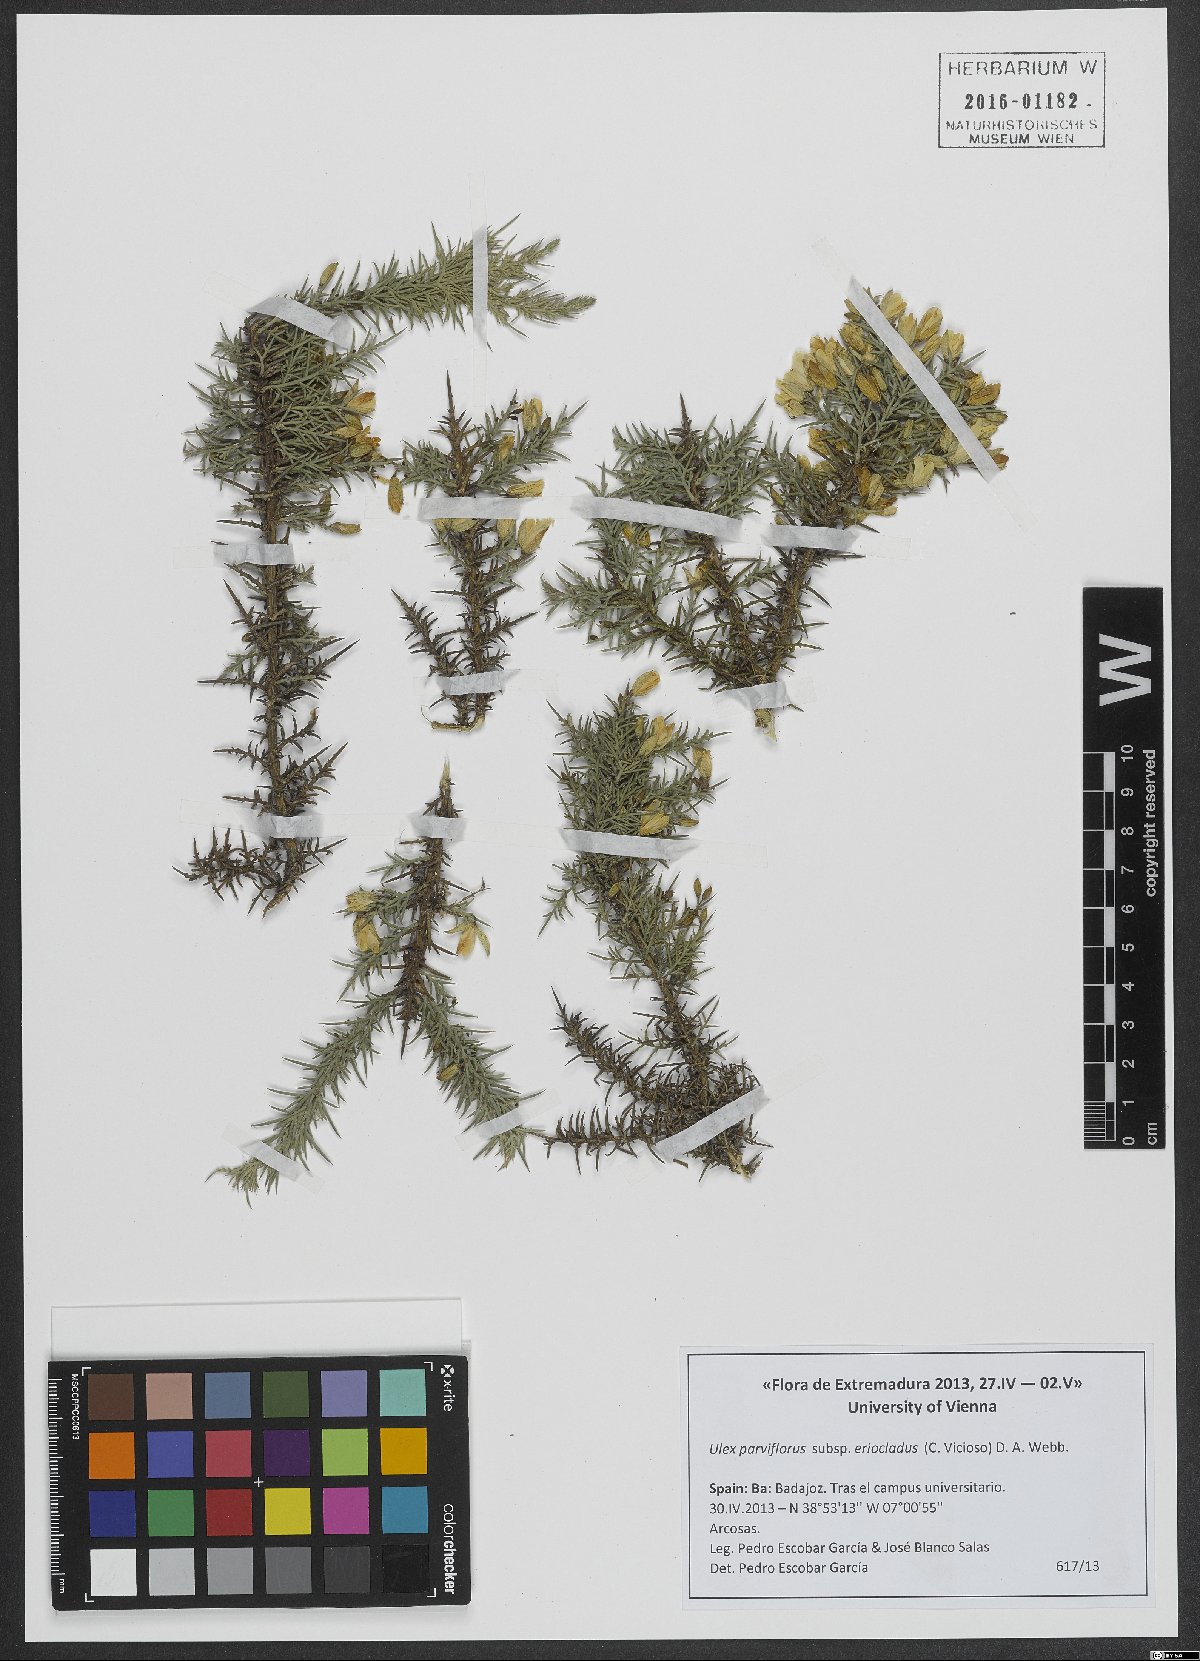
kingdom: Plantae
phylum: Tracheophyta
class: Magnoliopsida
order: Fabales
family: Fabaceae
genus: Ulex
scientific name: Ulex eriocladus
